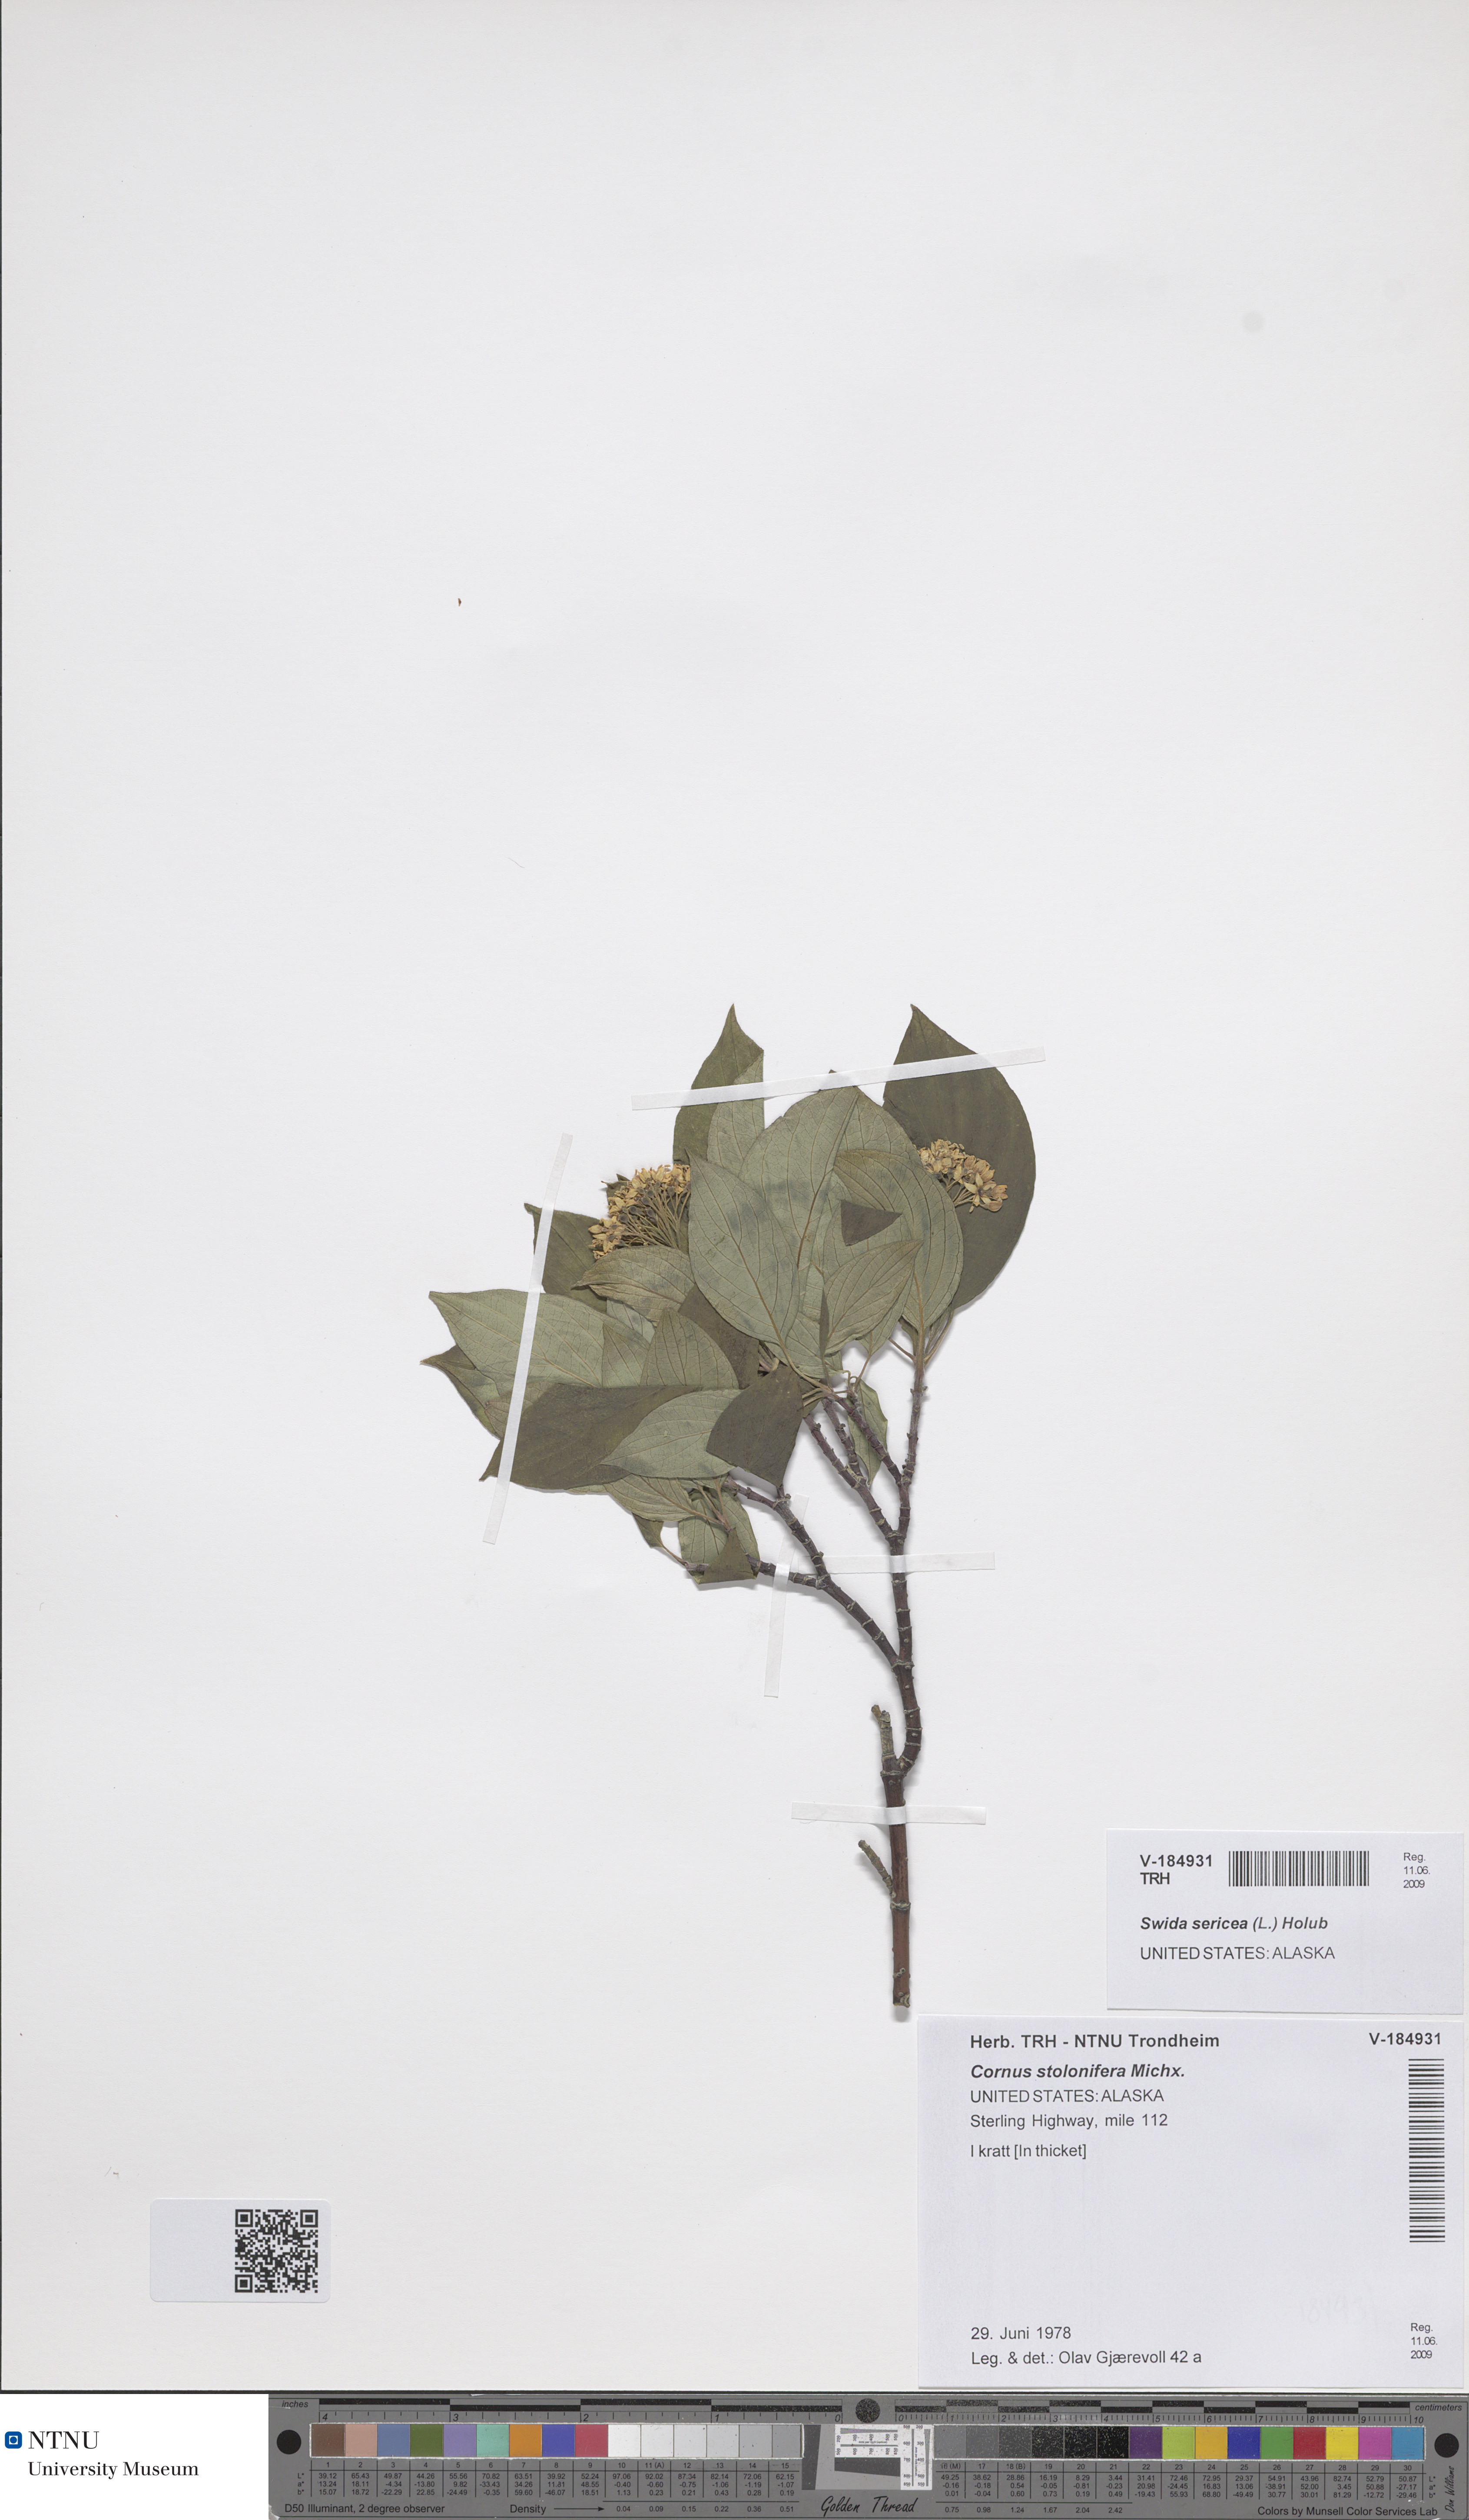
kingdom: Plantae
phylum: Tracheophyta
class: Magnoliopsida
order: Cornales
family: Cornaceae
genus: Cornus
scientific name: Cornus sericea
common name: Red-osier dogwood
